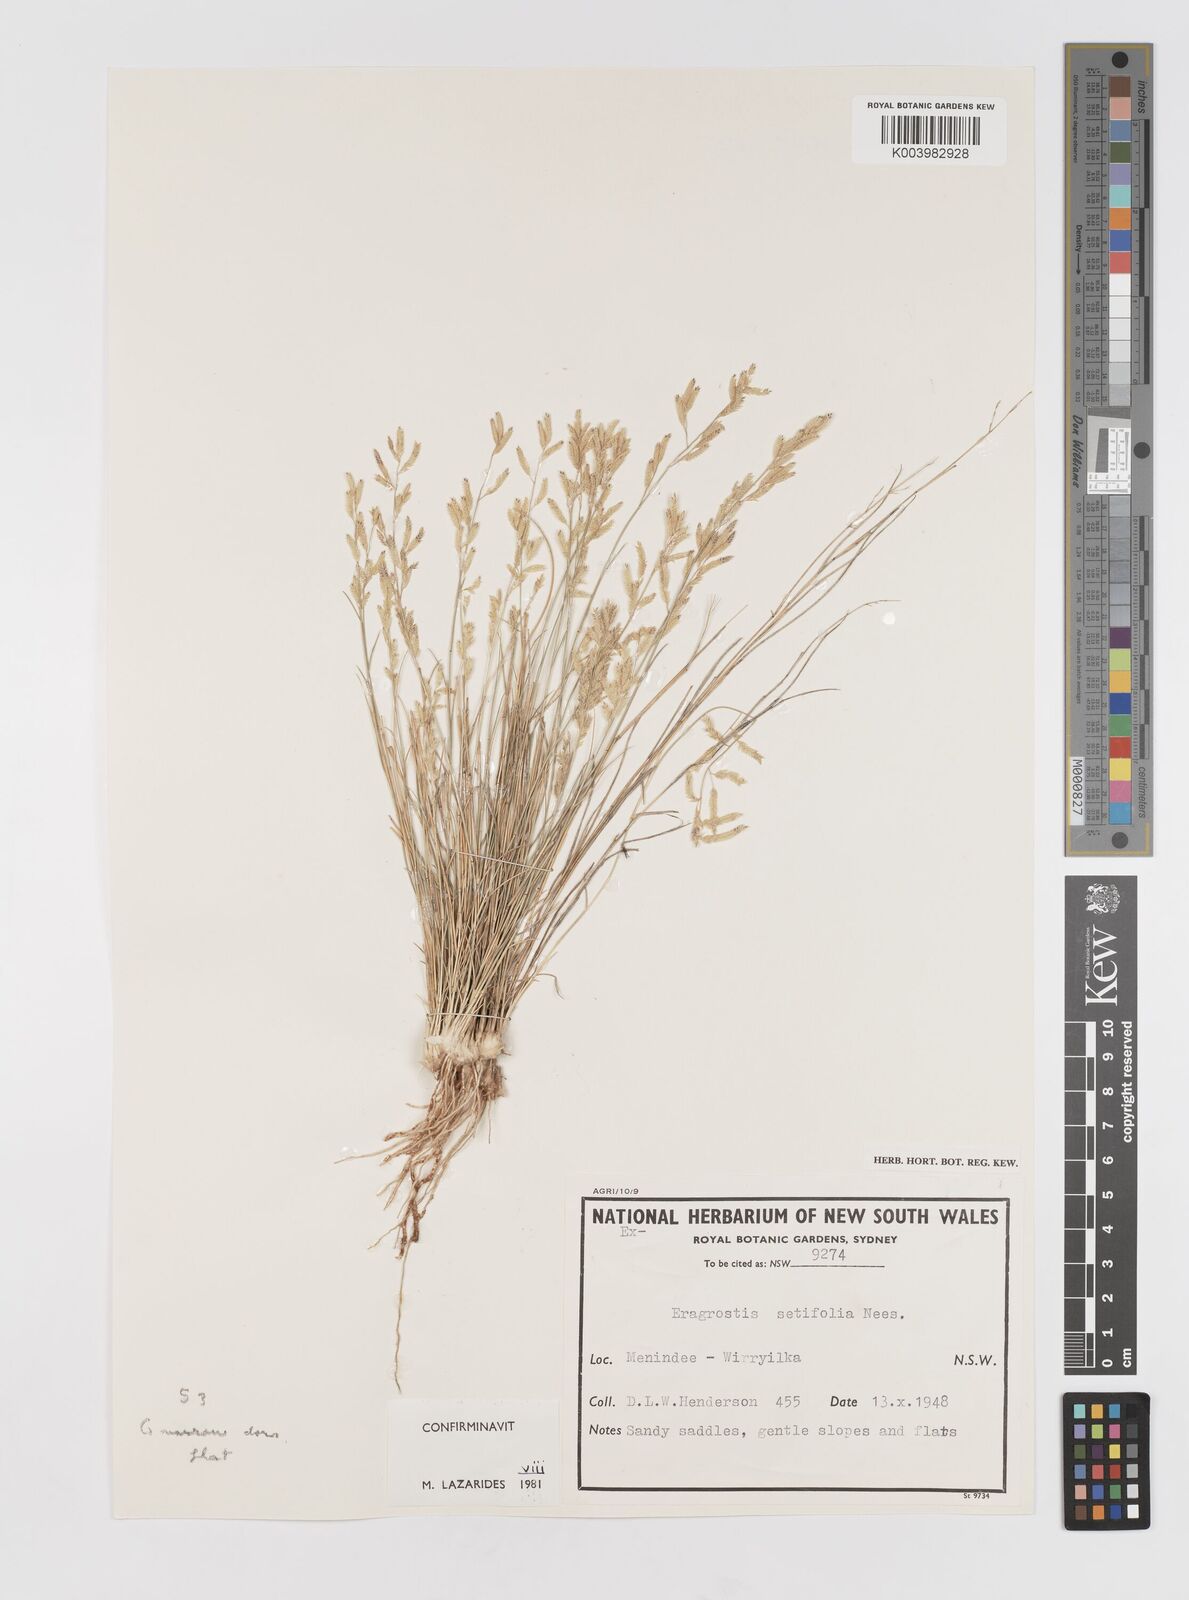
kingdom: Plantae
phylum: Tracheophyta
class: Liliopsida
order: Poales
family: Poaceae
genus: Eragrostis
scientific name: Eragrostis setifolia
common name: Bristleleaf lovegrass
